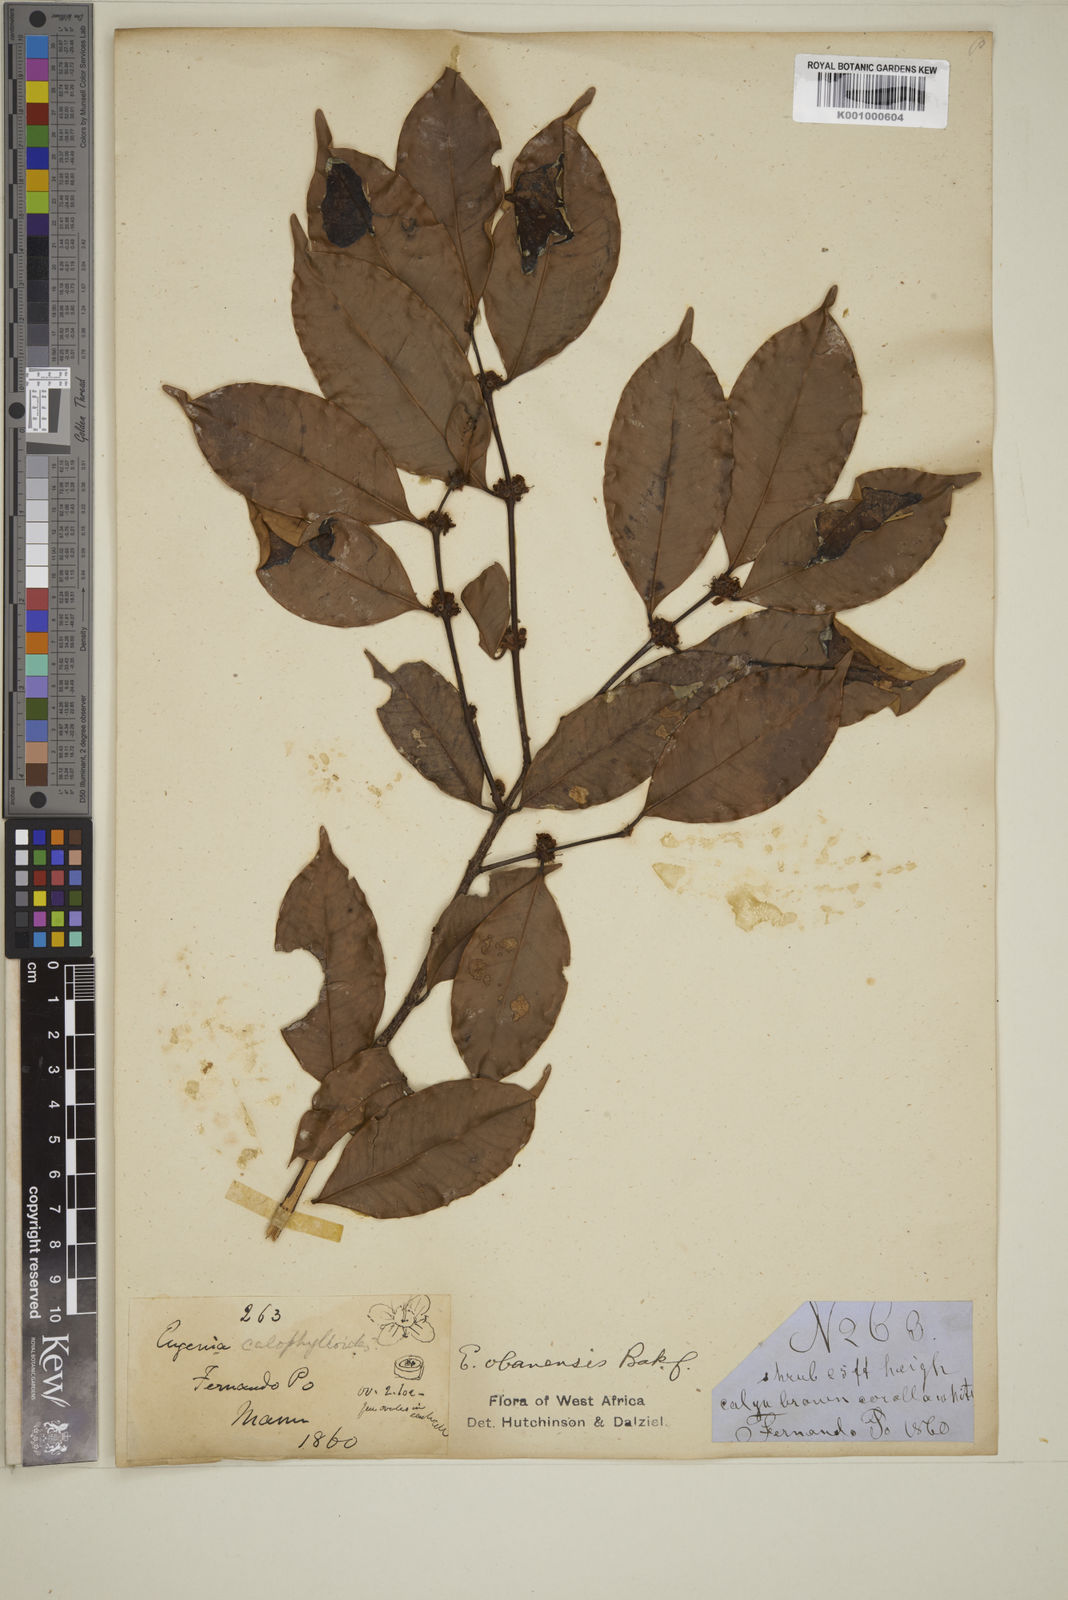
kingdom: Plantae
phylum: Tracheophyta
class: Magnoliopsida
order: Myrtales
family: Myrtaceae
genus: Eugenia
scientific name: Eugenia obanensis
